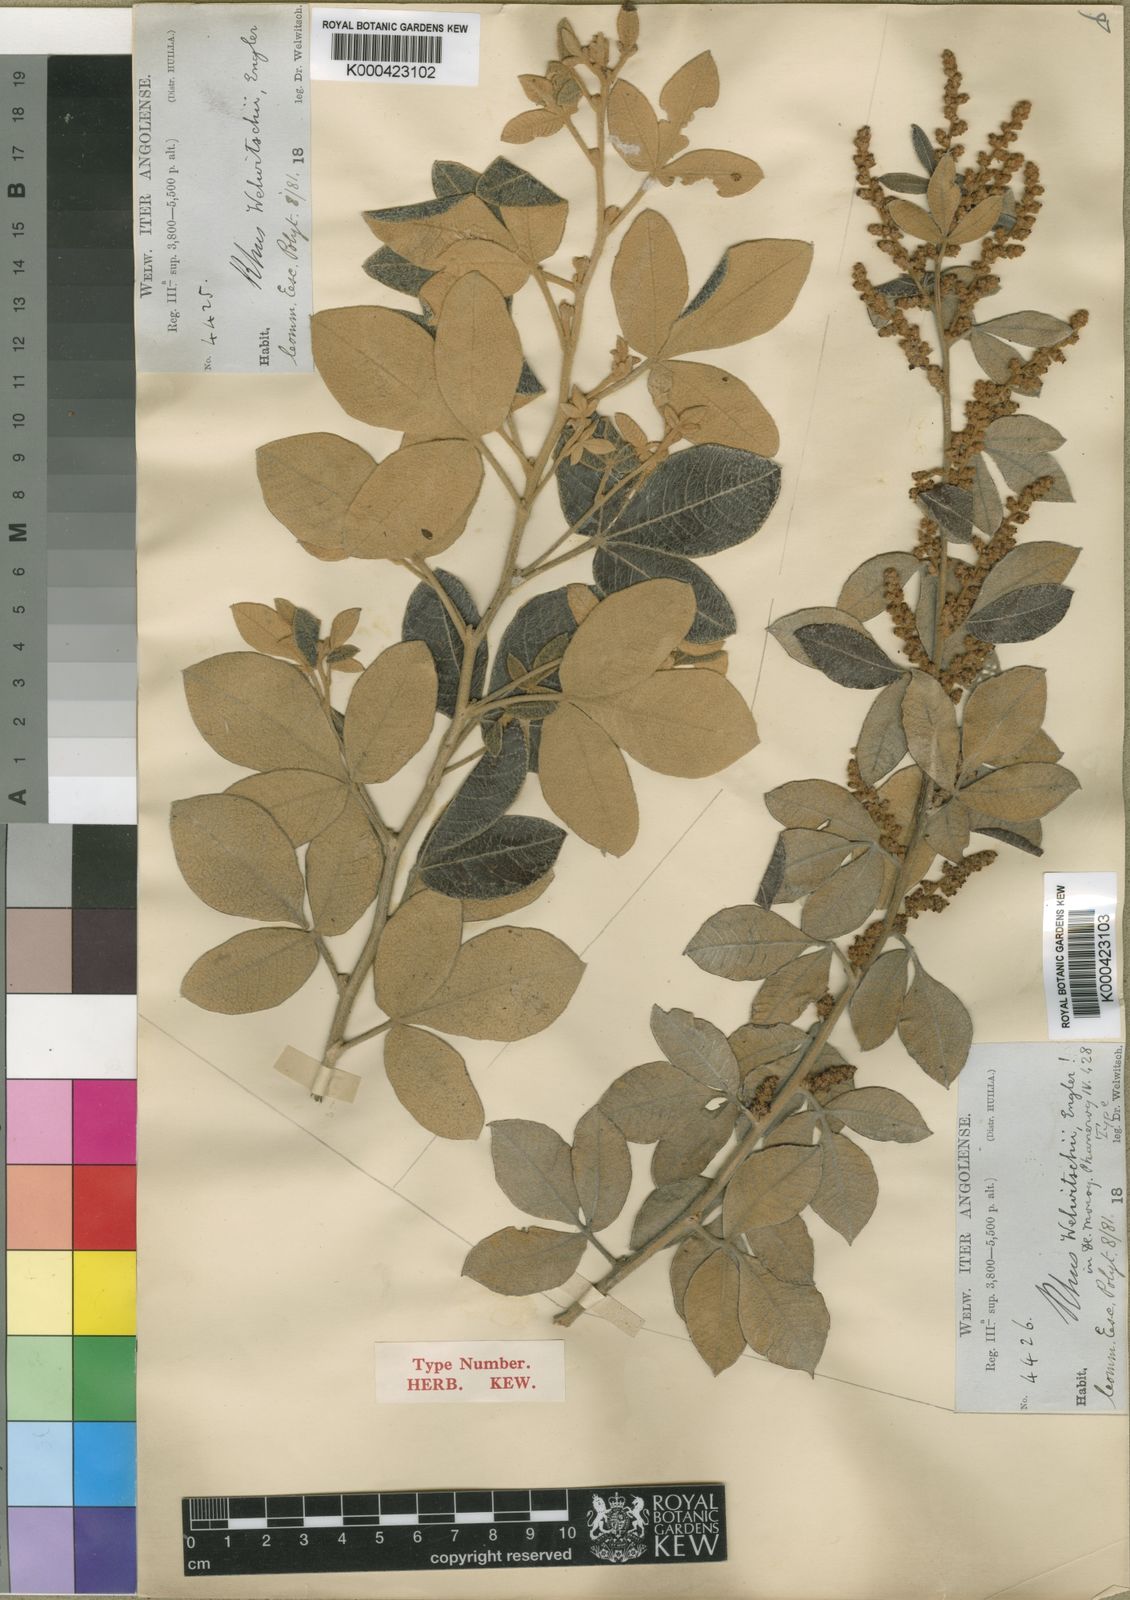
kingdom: Plantae
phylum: Tracheophyta
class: Magnoliopsida
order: Sapindales
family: Anacardiaceae
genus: Searsia
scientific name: Searsia kirkii
